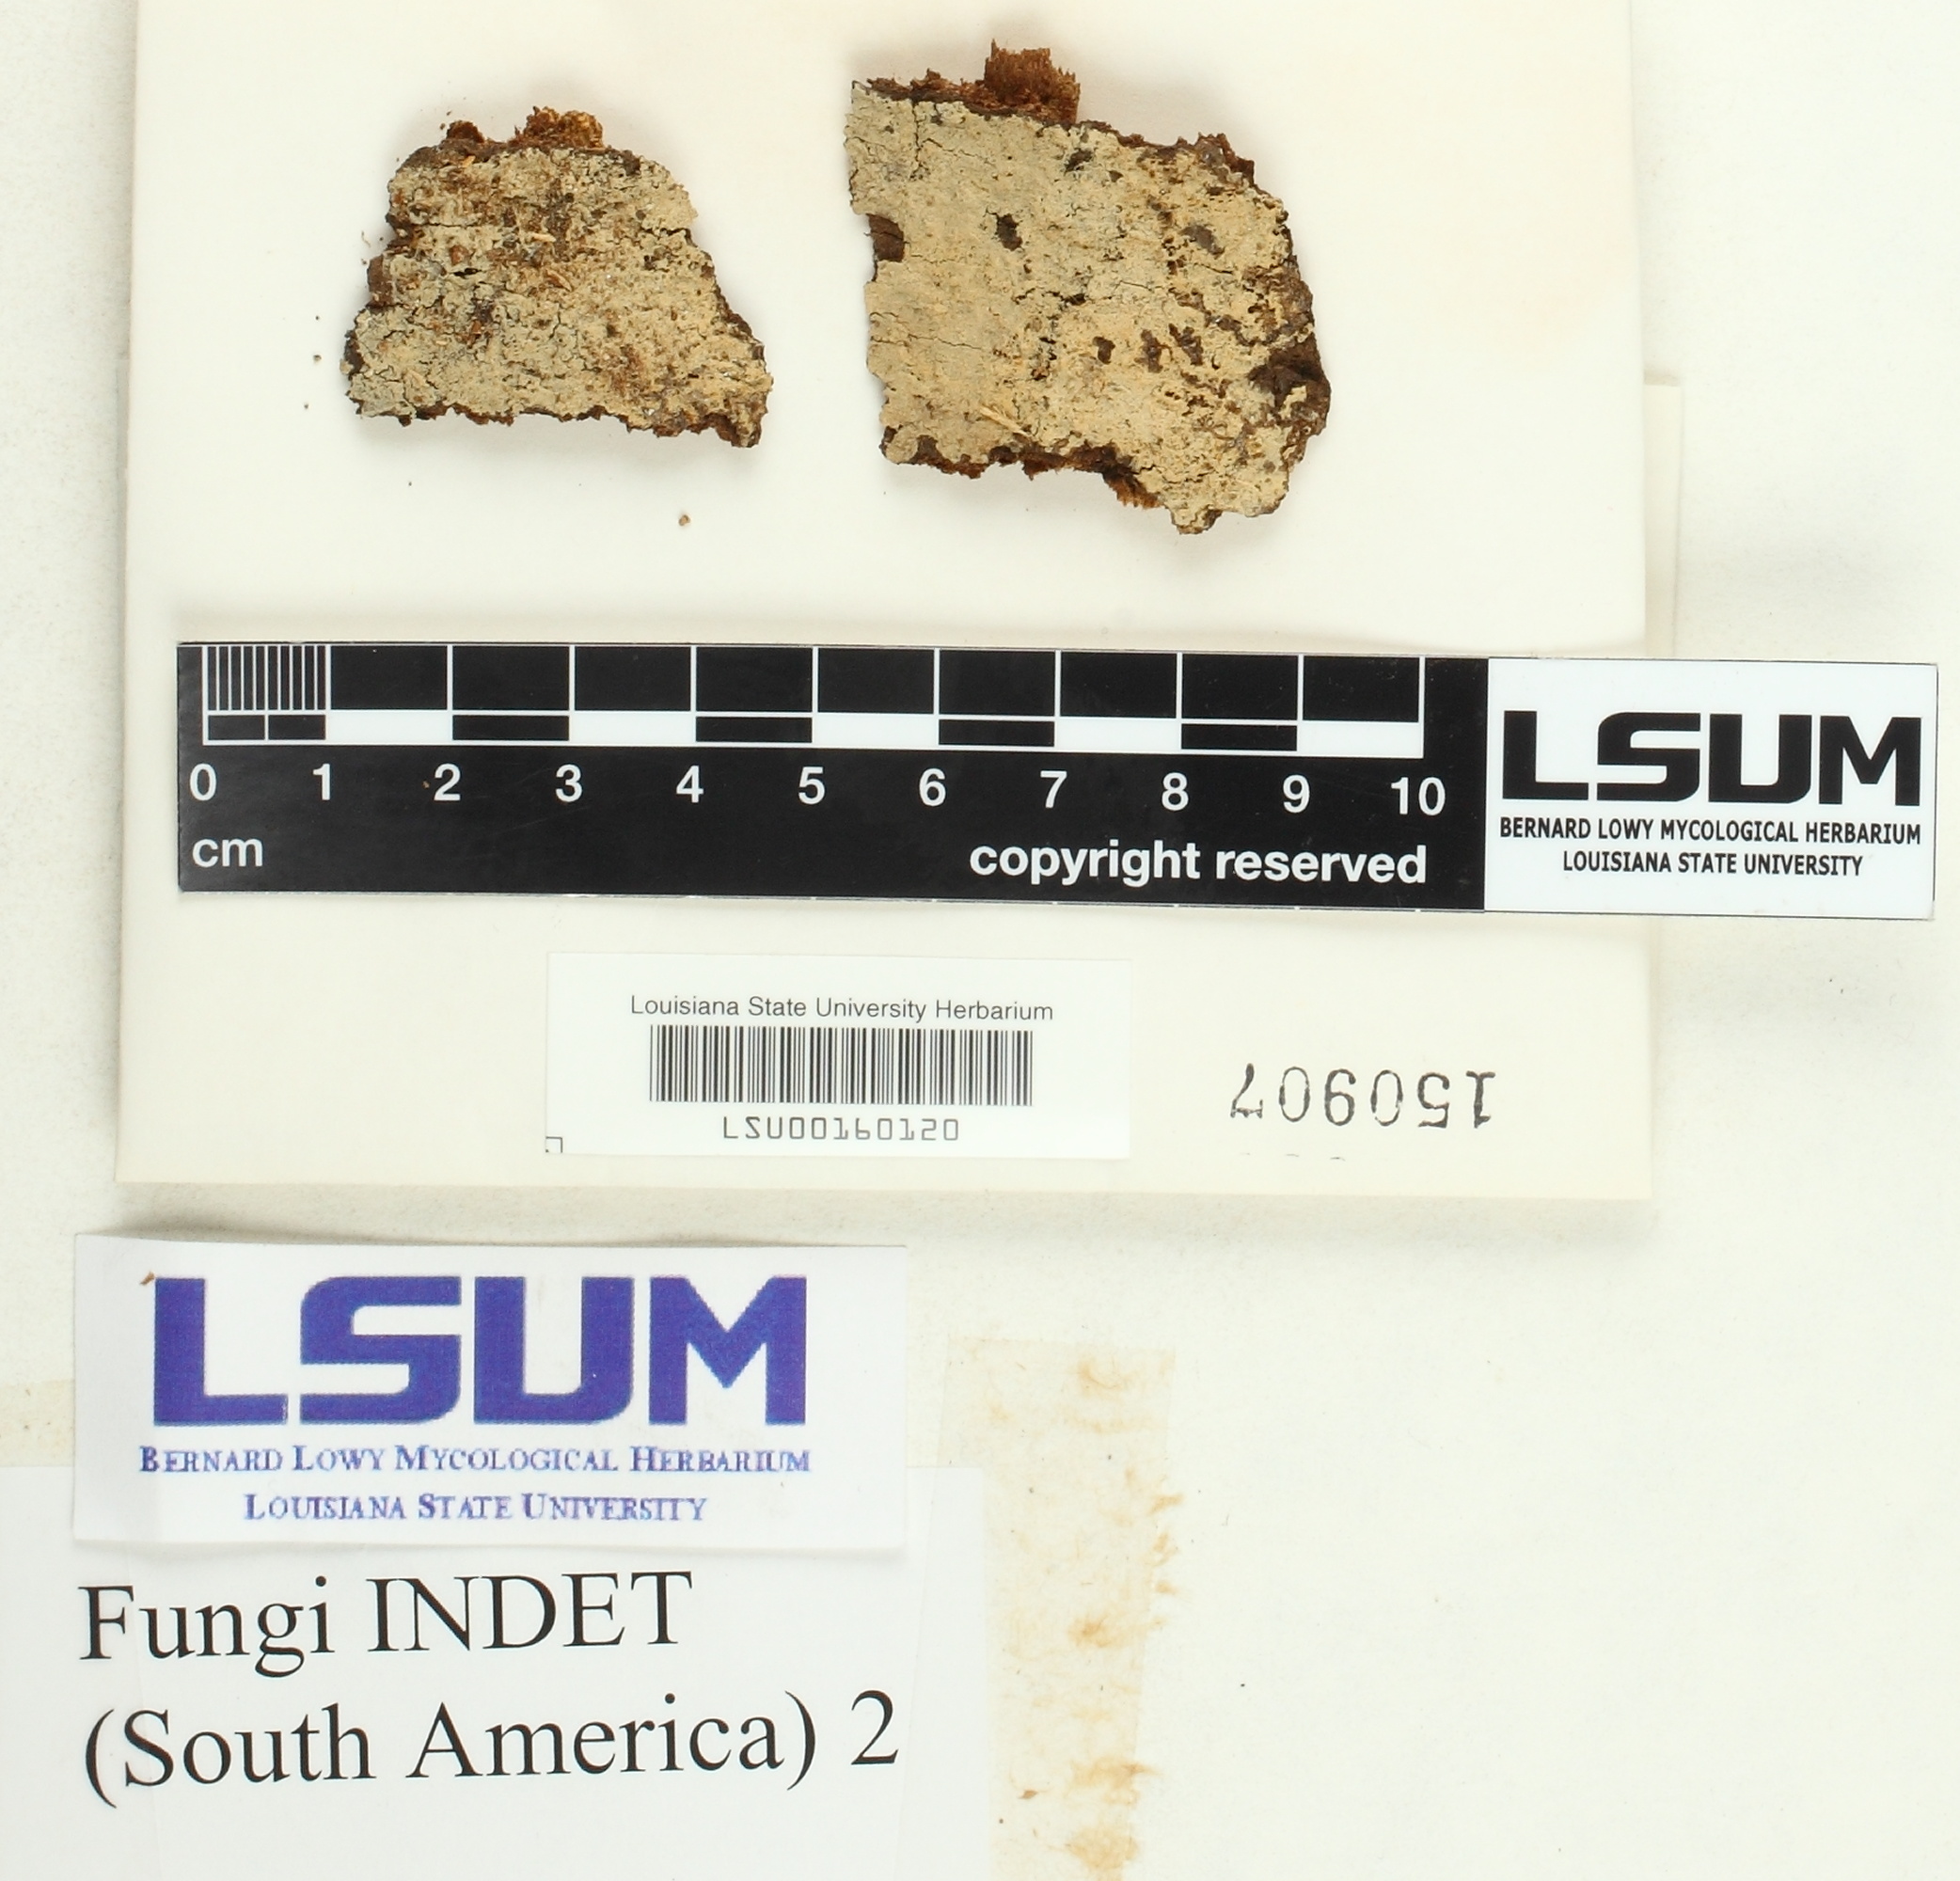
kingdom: Fungi
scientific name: Fungi
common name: Fungi
